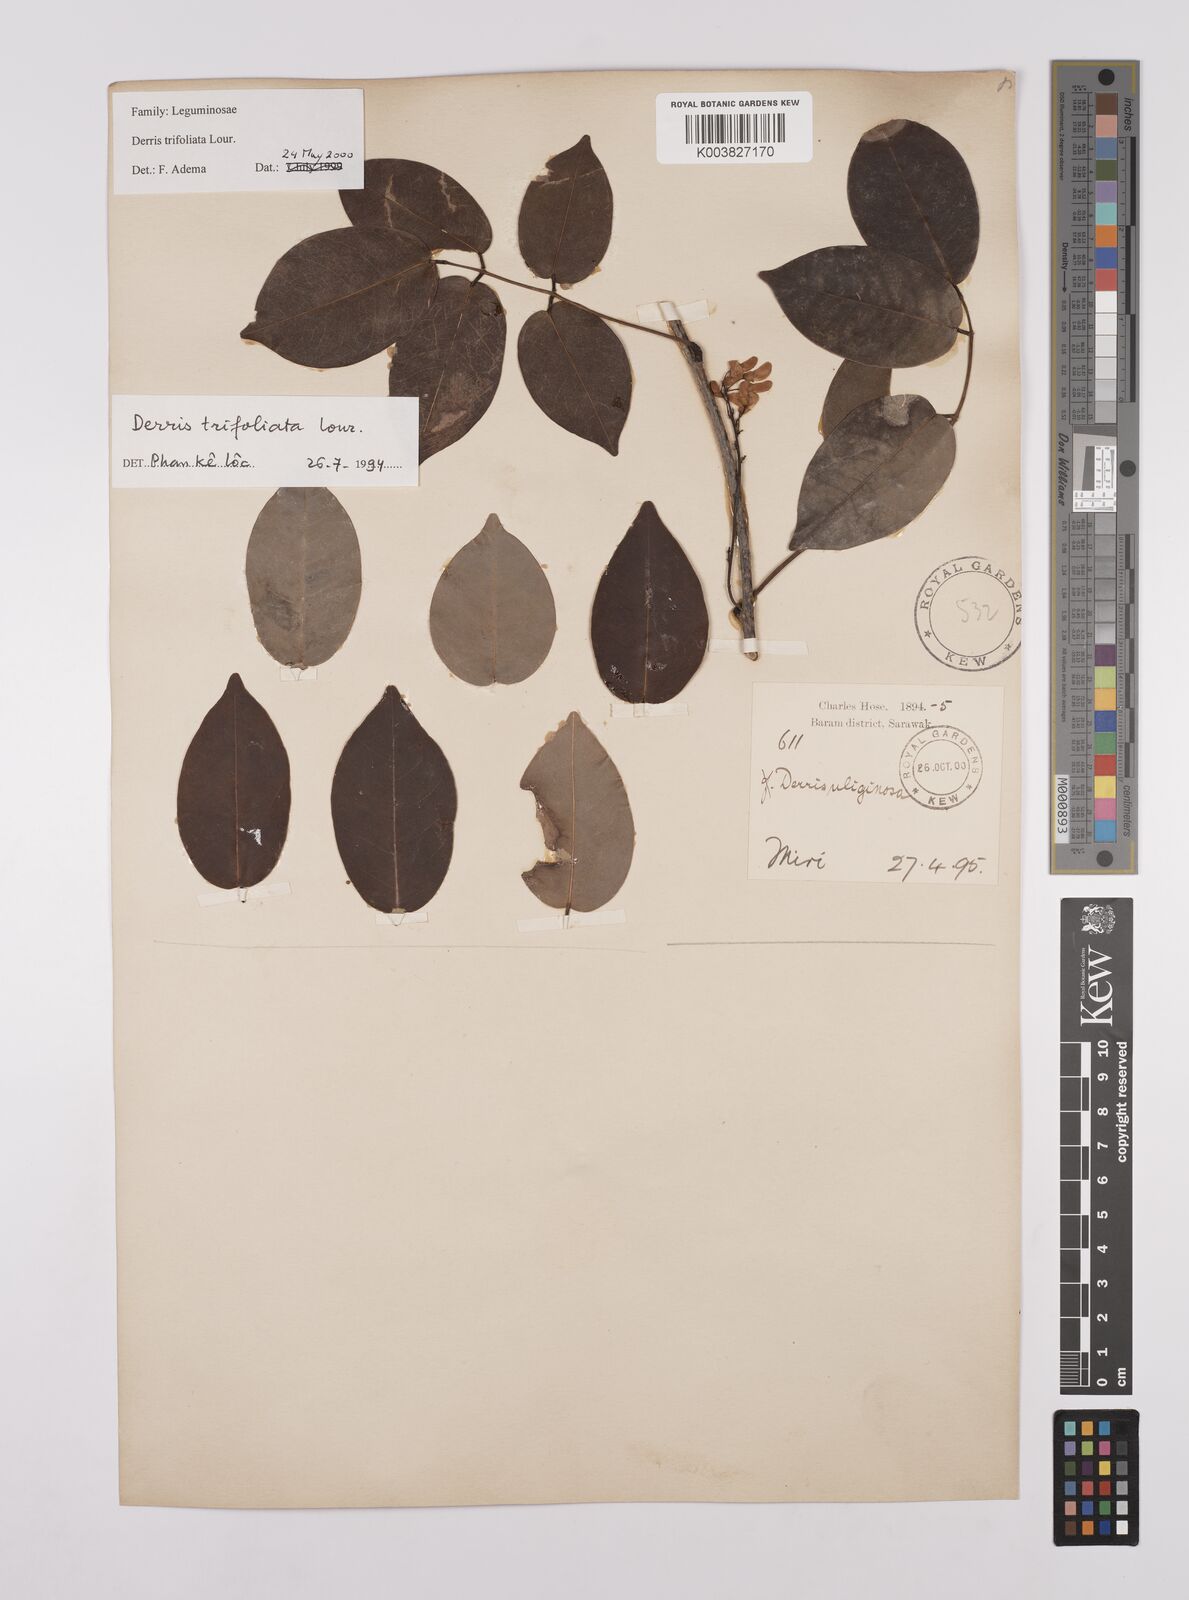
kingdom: Plantae
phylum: Tracheophyta
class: Magnoliopsida
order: Fabales
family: Fabaceae
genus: Derris
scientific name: Derris trifoliata
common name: Three-leaf derris
